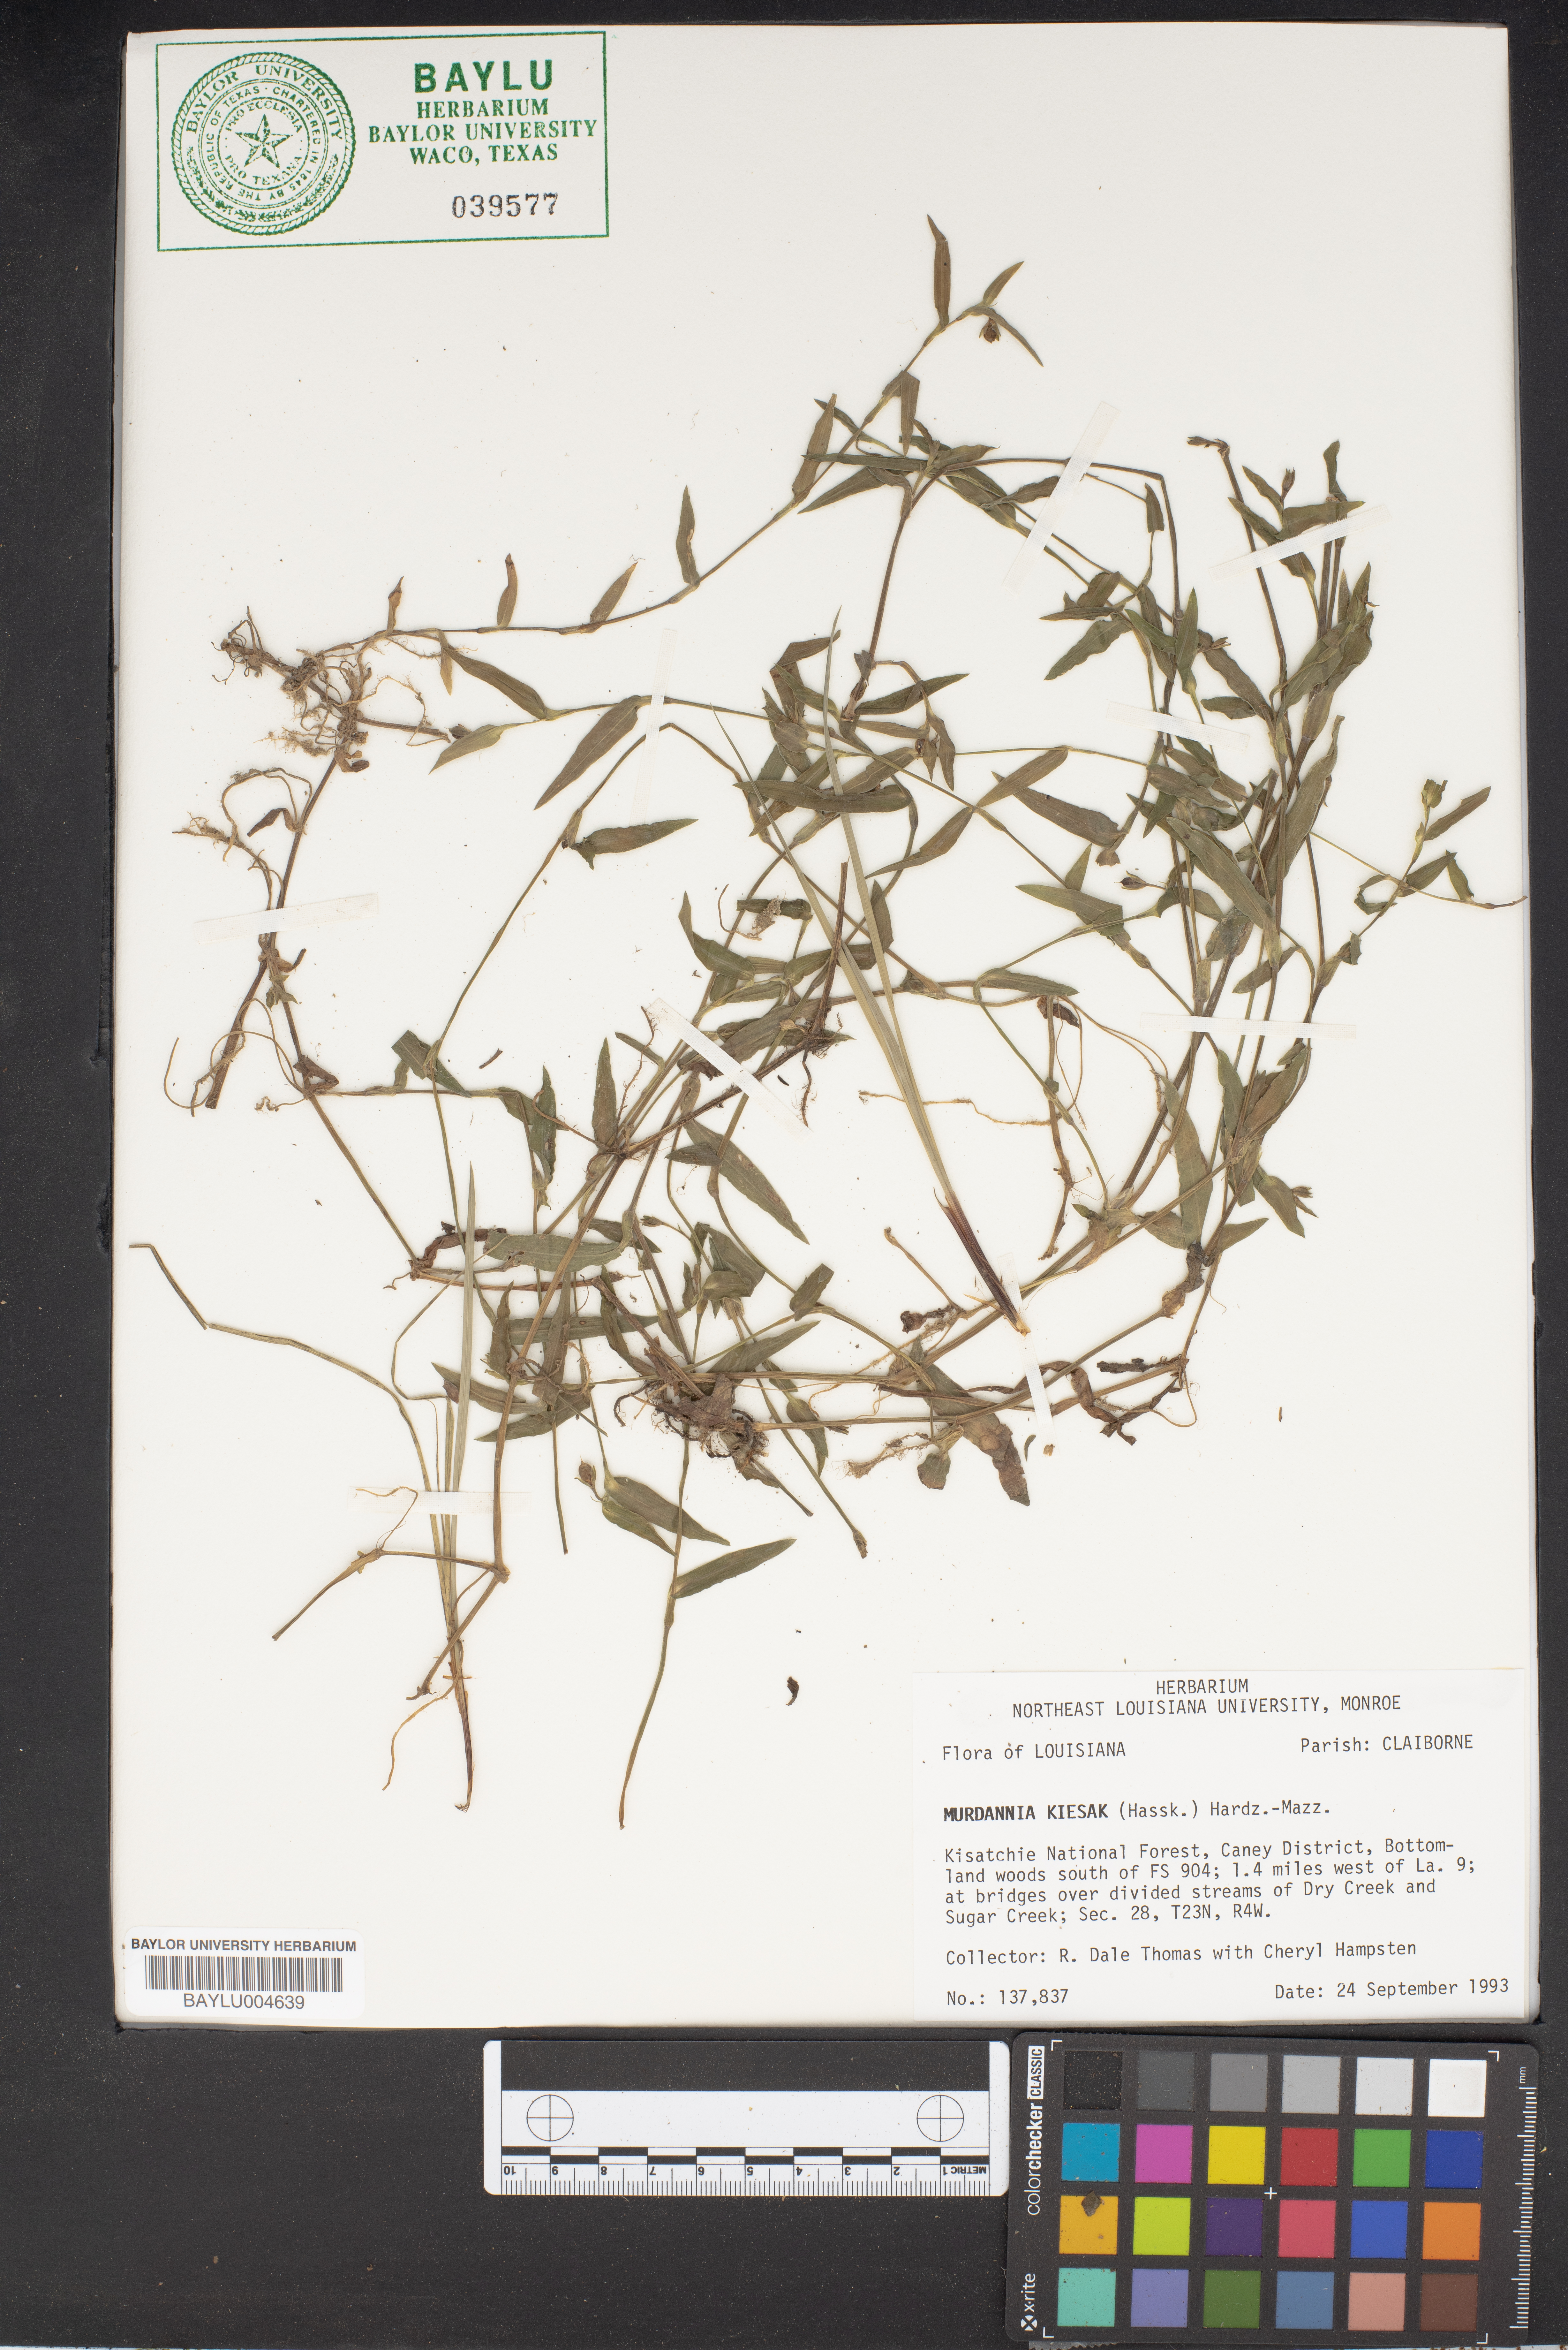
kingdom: Plantae
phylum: Tracheophyta
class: Liliopsida
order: Commelinales
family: Commelinaceae
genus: Murdannia
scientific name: Murdannia keisak
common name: Wartremoving herb
